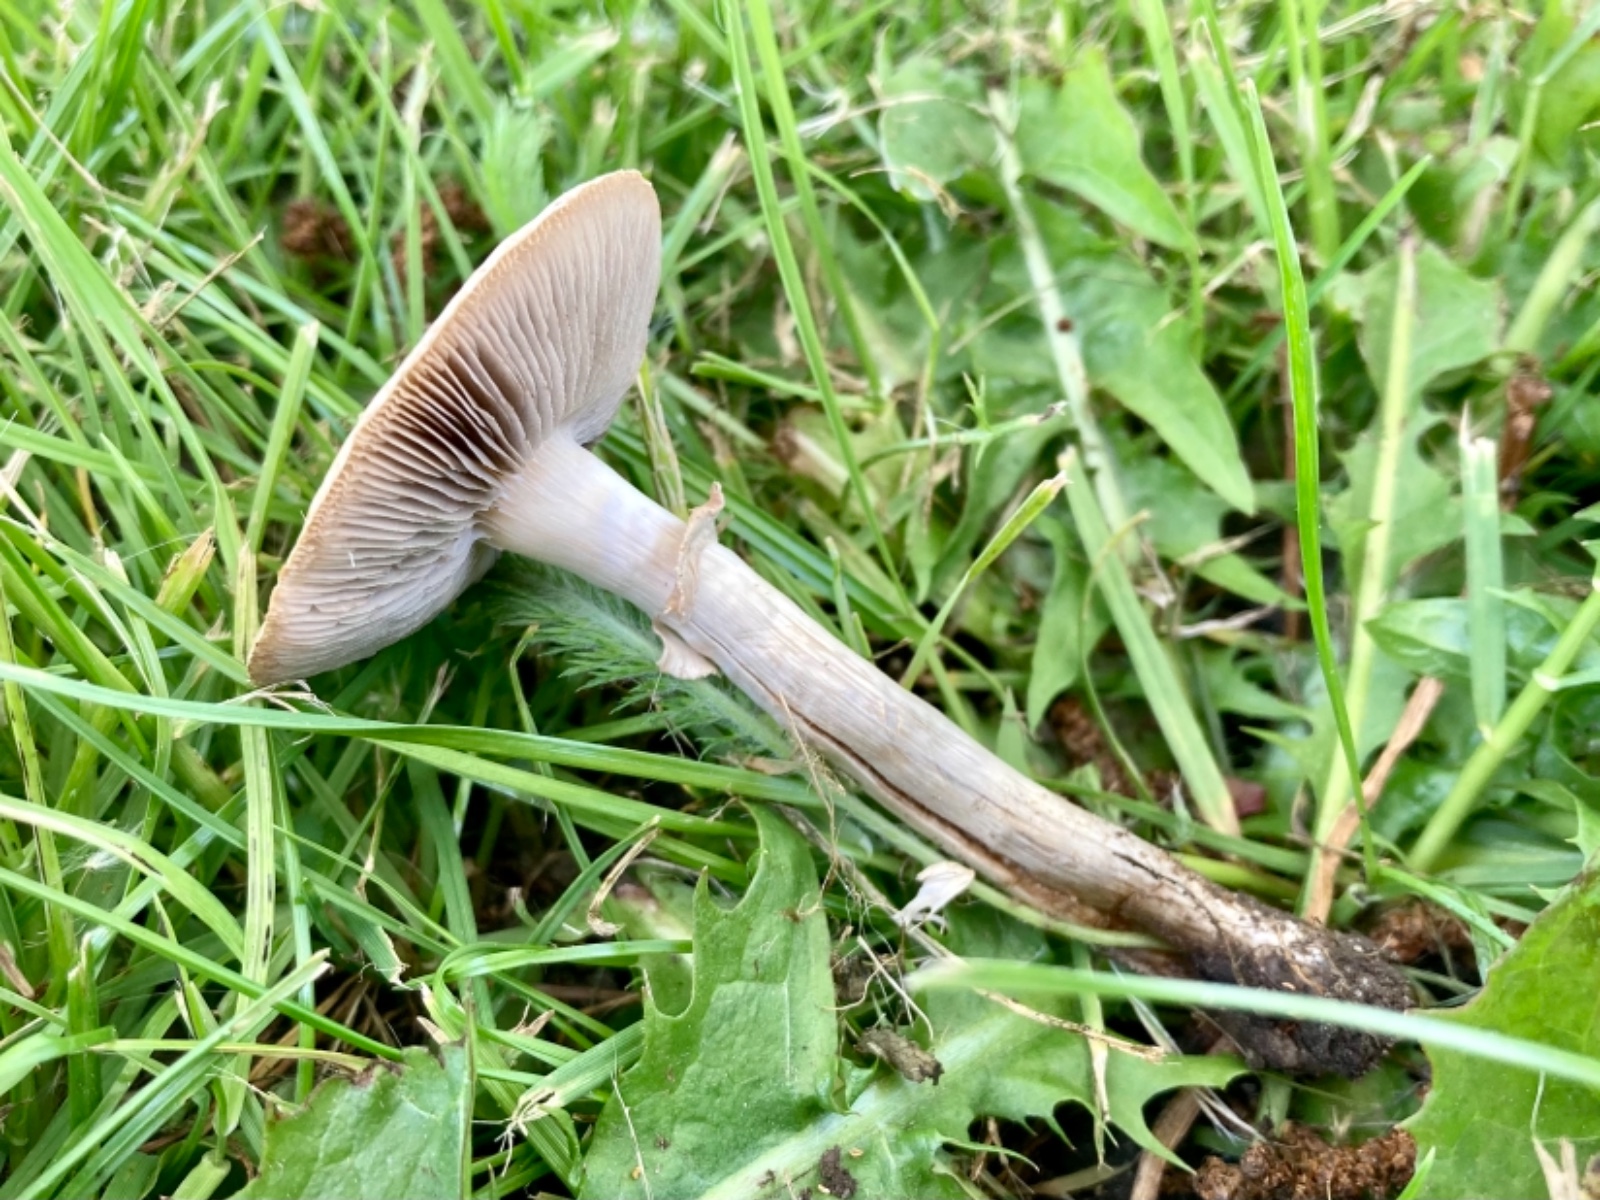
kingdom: Fungi
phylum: Basidiomycota
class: Agaricomycetes
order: Agaricales
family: Strophariaceae
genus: Agrocybe
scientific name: Agrocybe praecox
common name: tidlig agerhat
